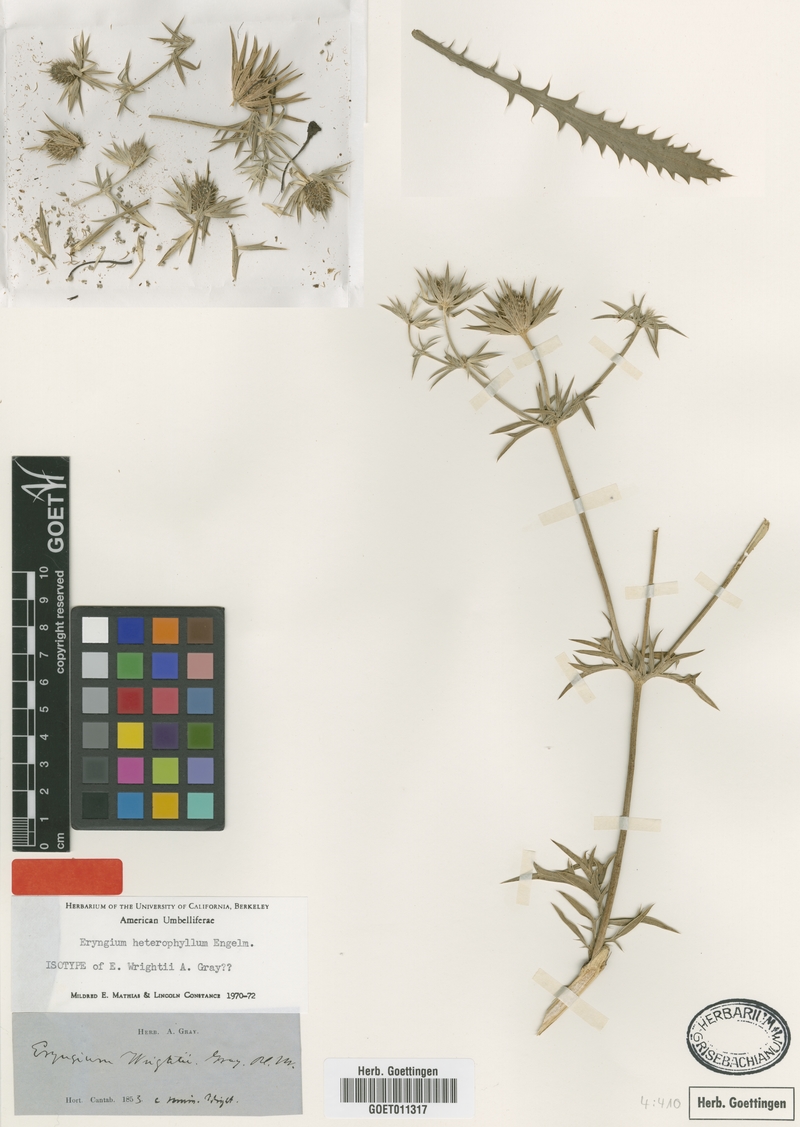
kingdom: Plantae
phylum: Tracheophyta
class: Magnoliopsida
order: Apiales
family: Apiaceae
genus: Eryngium
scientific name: Eryngium heterophyllum
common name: Mexican thistle
